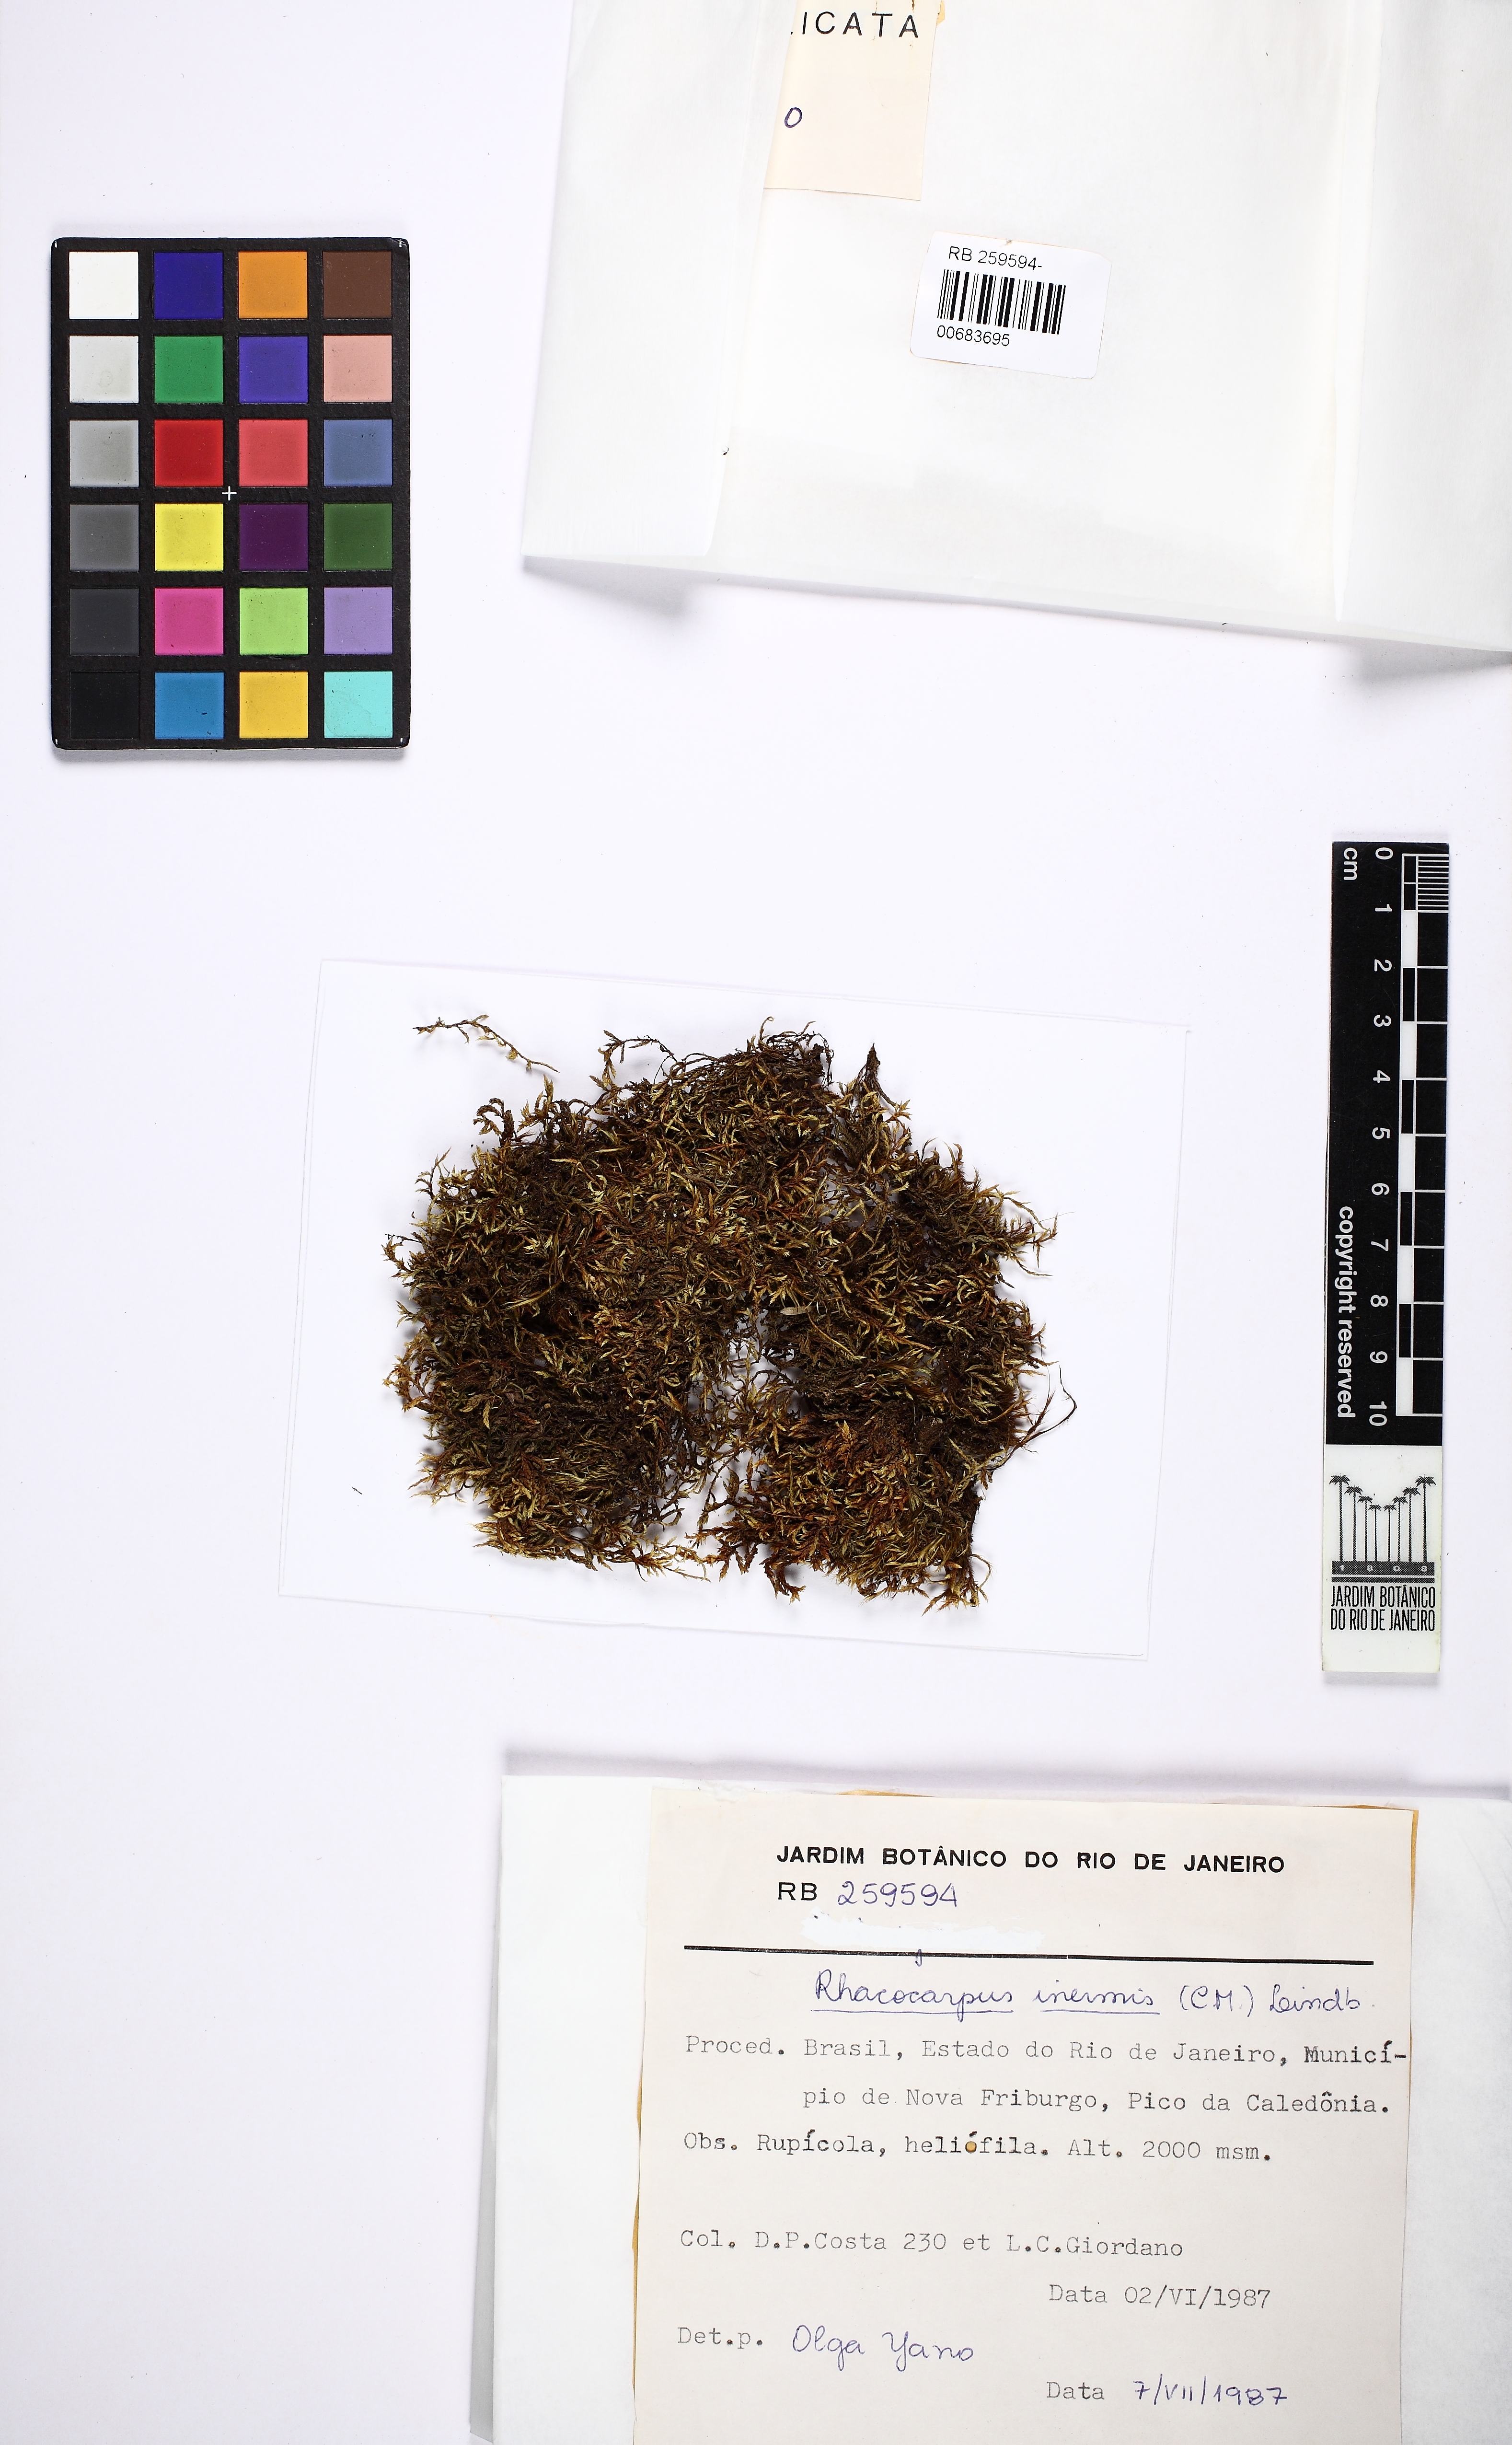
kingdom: Plantae
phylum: Bryophyta
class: Bryopsida
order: Hedwigiales
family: Hedwigiaceae
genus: Rhacocarpus
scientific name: Rhacocarpus inermis
